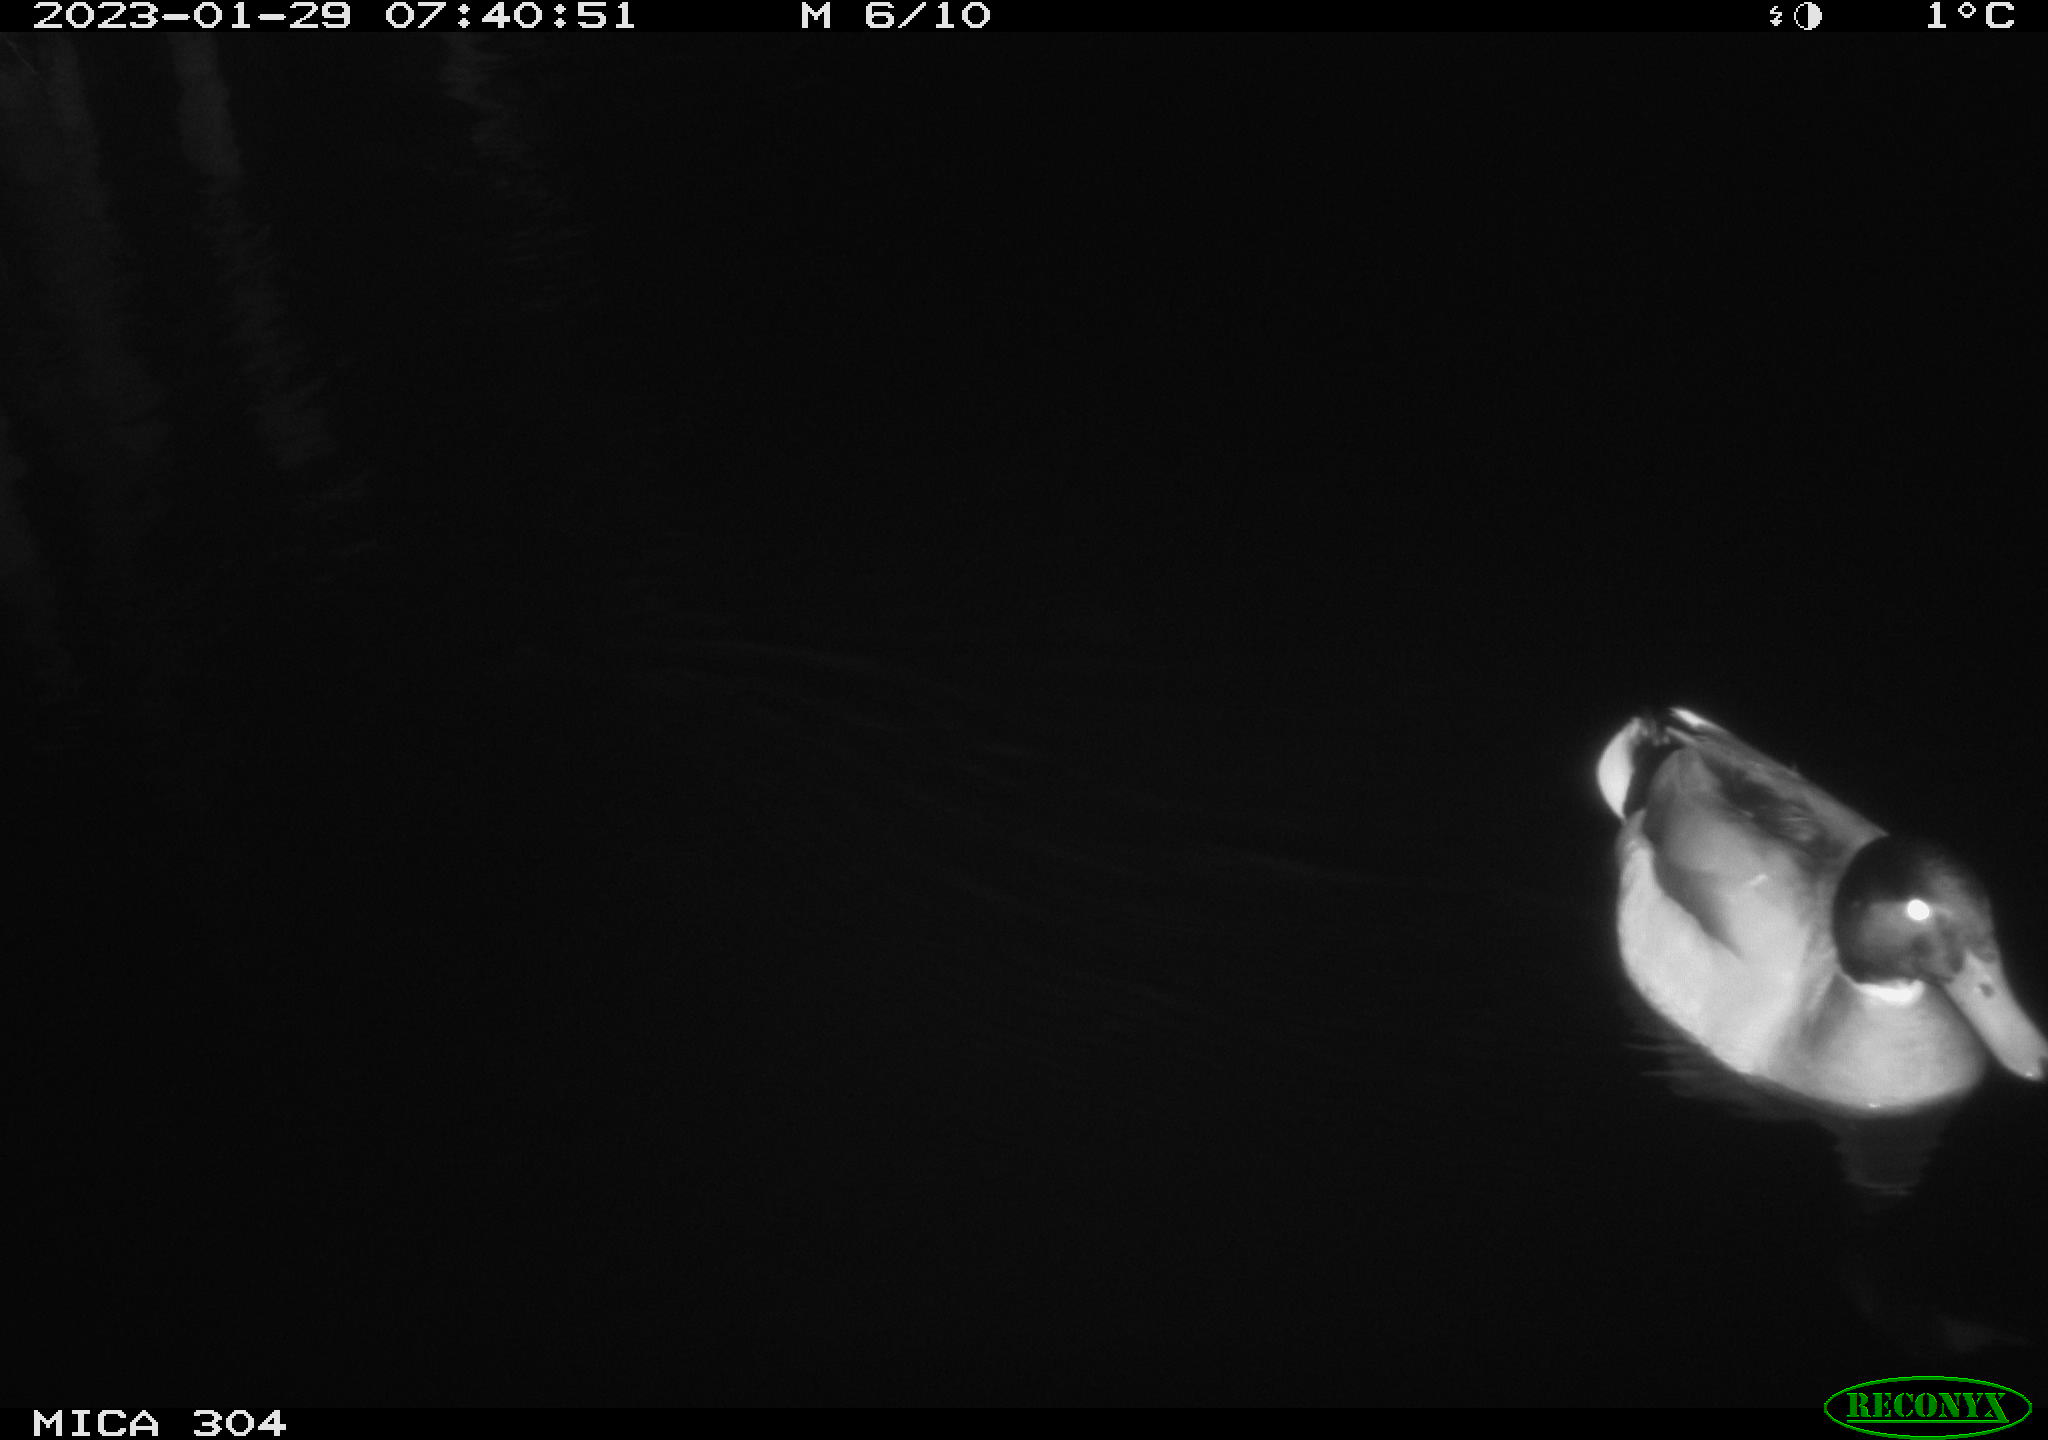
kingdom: Animalia
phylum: Chordata
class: Aves
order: Anseriformes
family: Anatidae
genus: Anas
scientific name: Anas
